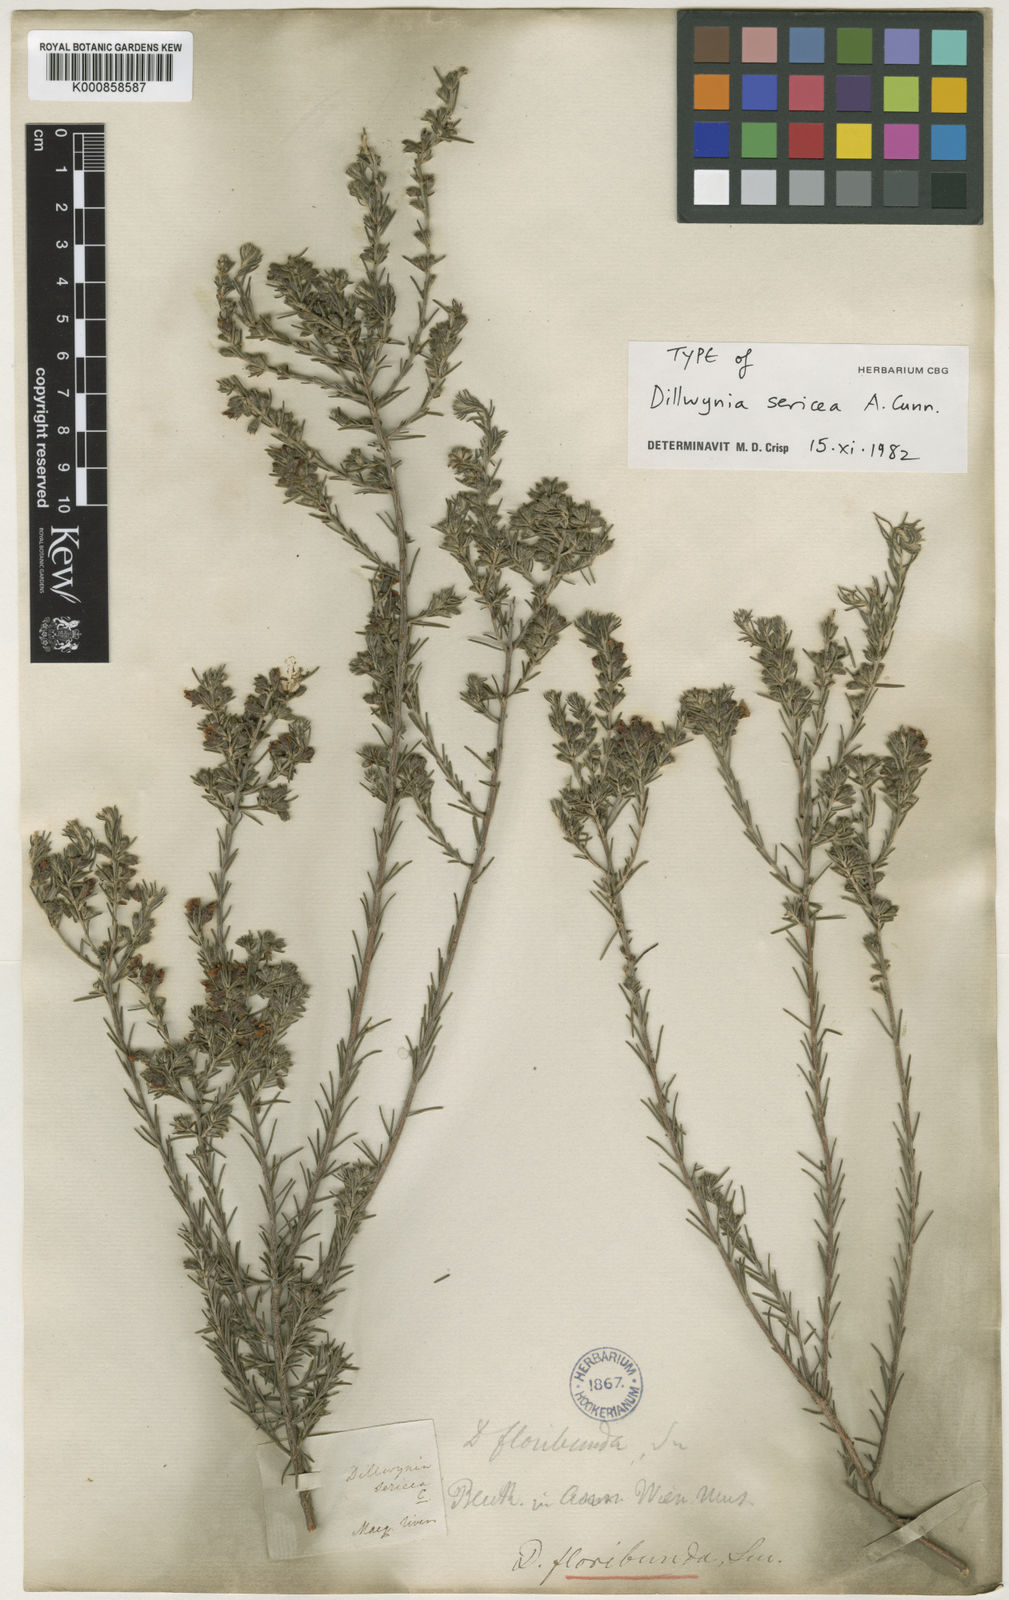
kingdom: Plantae
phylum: Tracheophyta
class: Magnoliopsida
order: Fabales
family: Fabaceae
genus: Dillwynia
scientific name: Dillwynia sericea
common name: Showy parrot-pea
